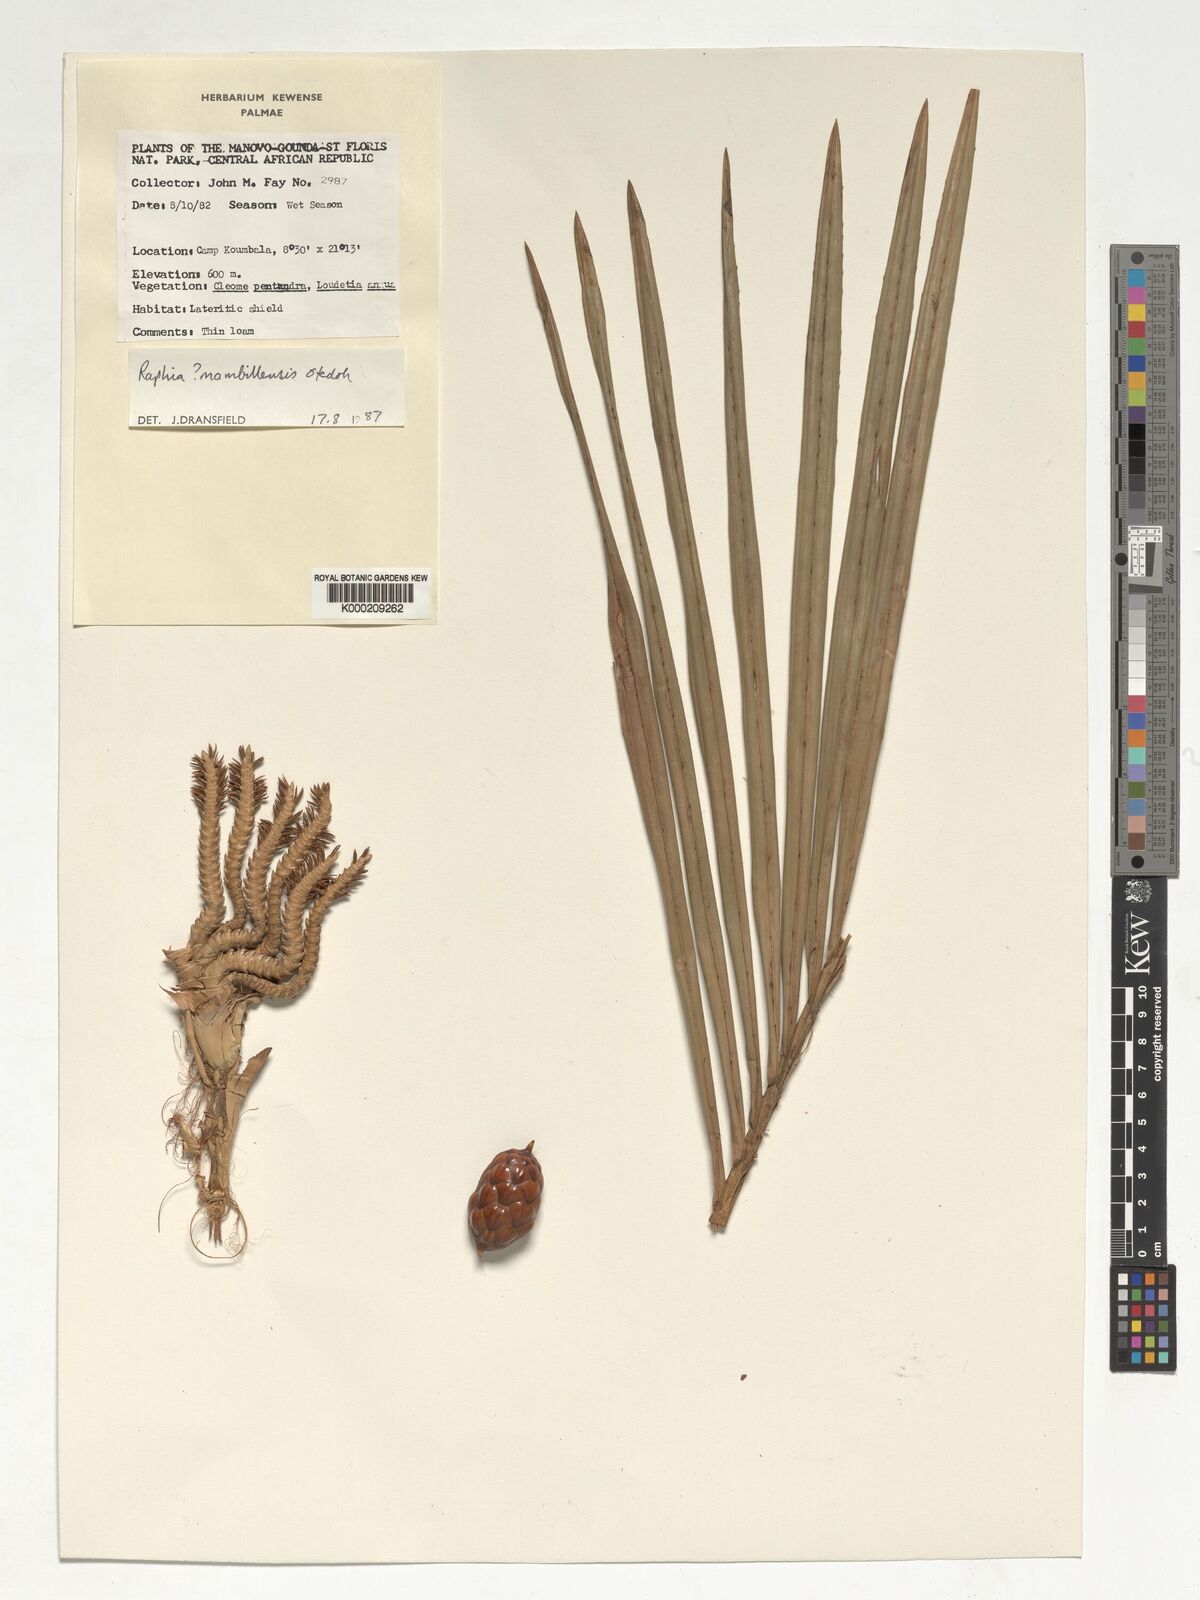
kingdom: Plantae
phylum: Tracheophyta
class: Liliopsida
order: Arecales
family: Arecaceae
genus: Raphia
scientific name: Raphia vinifera
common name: Raphia palm
